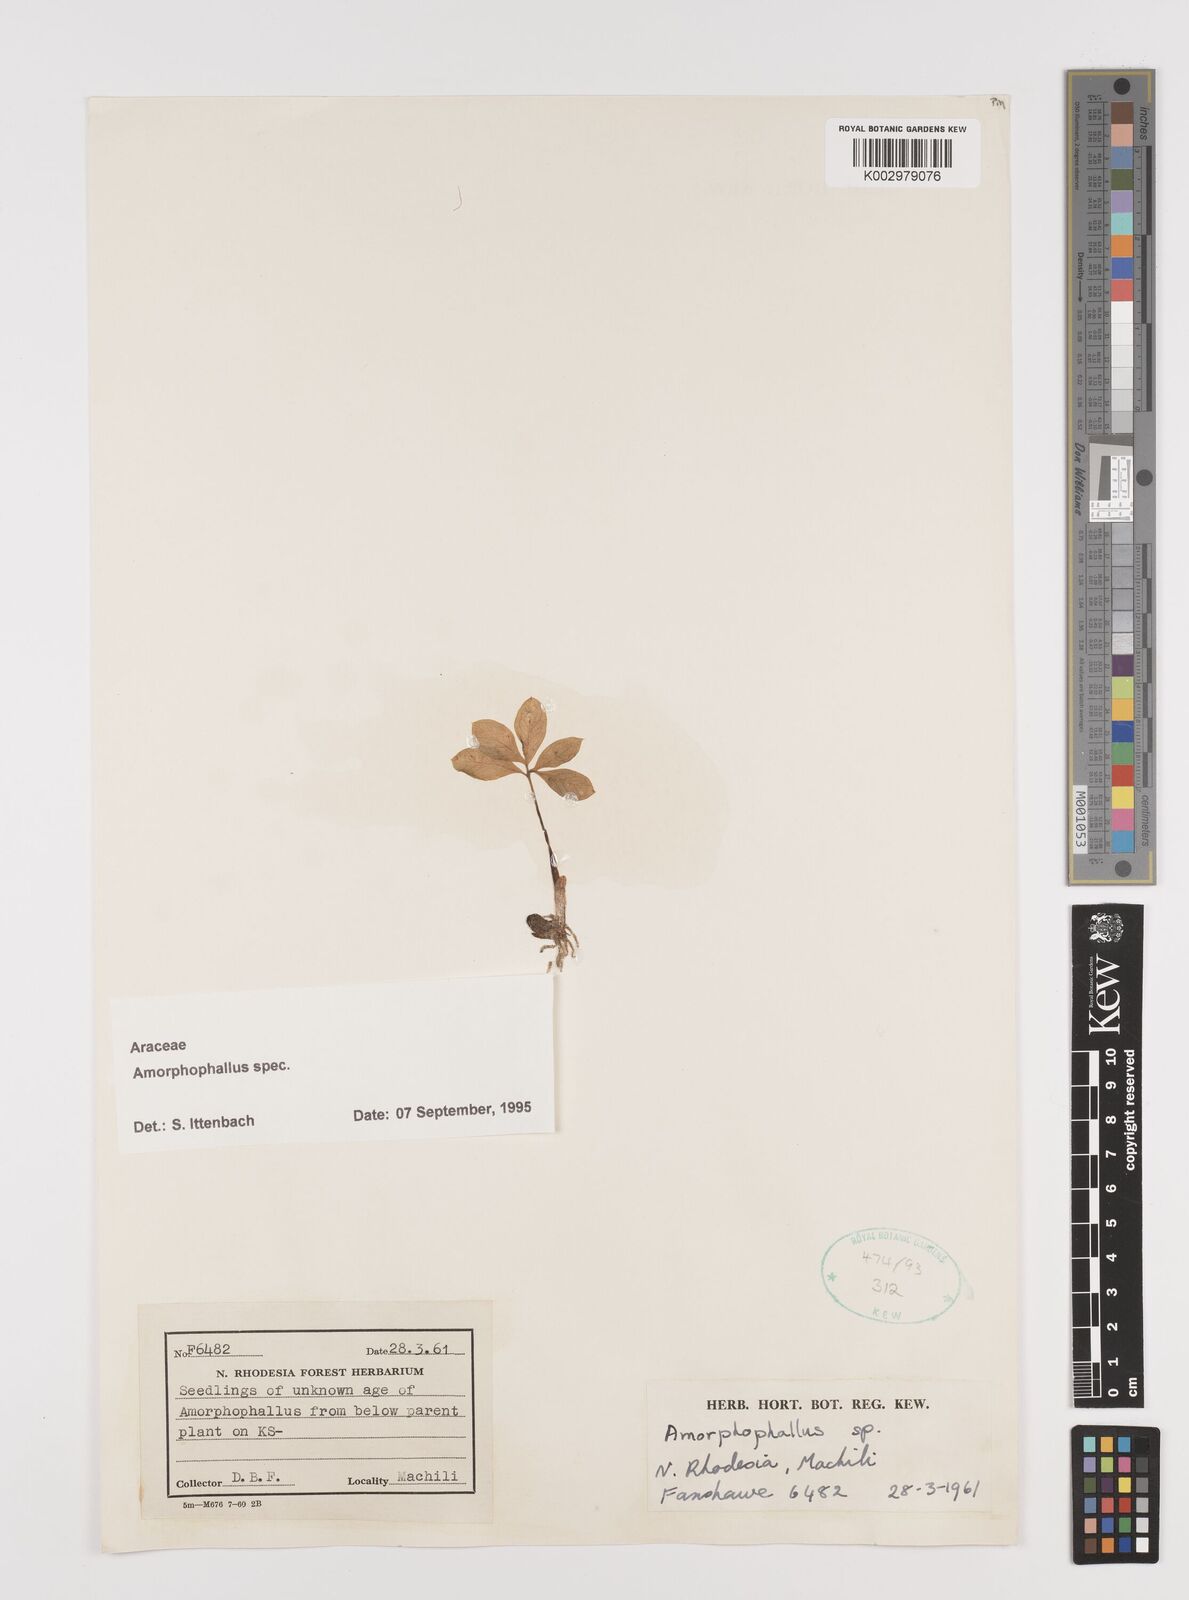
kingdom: Plantae
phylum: Tracheophyta
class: Liliopsida
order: Alismatales
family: Araceae
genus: Amorphophallus
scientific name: Amorphophallus
